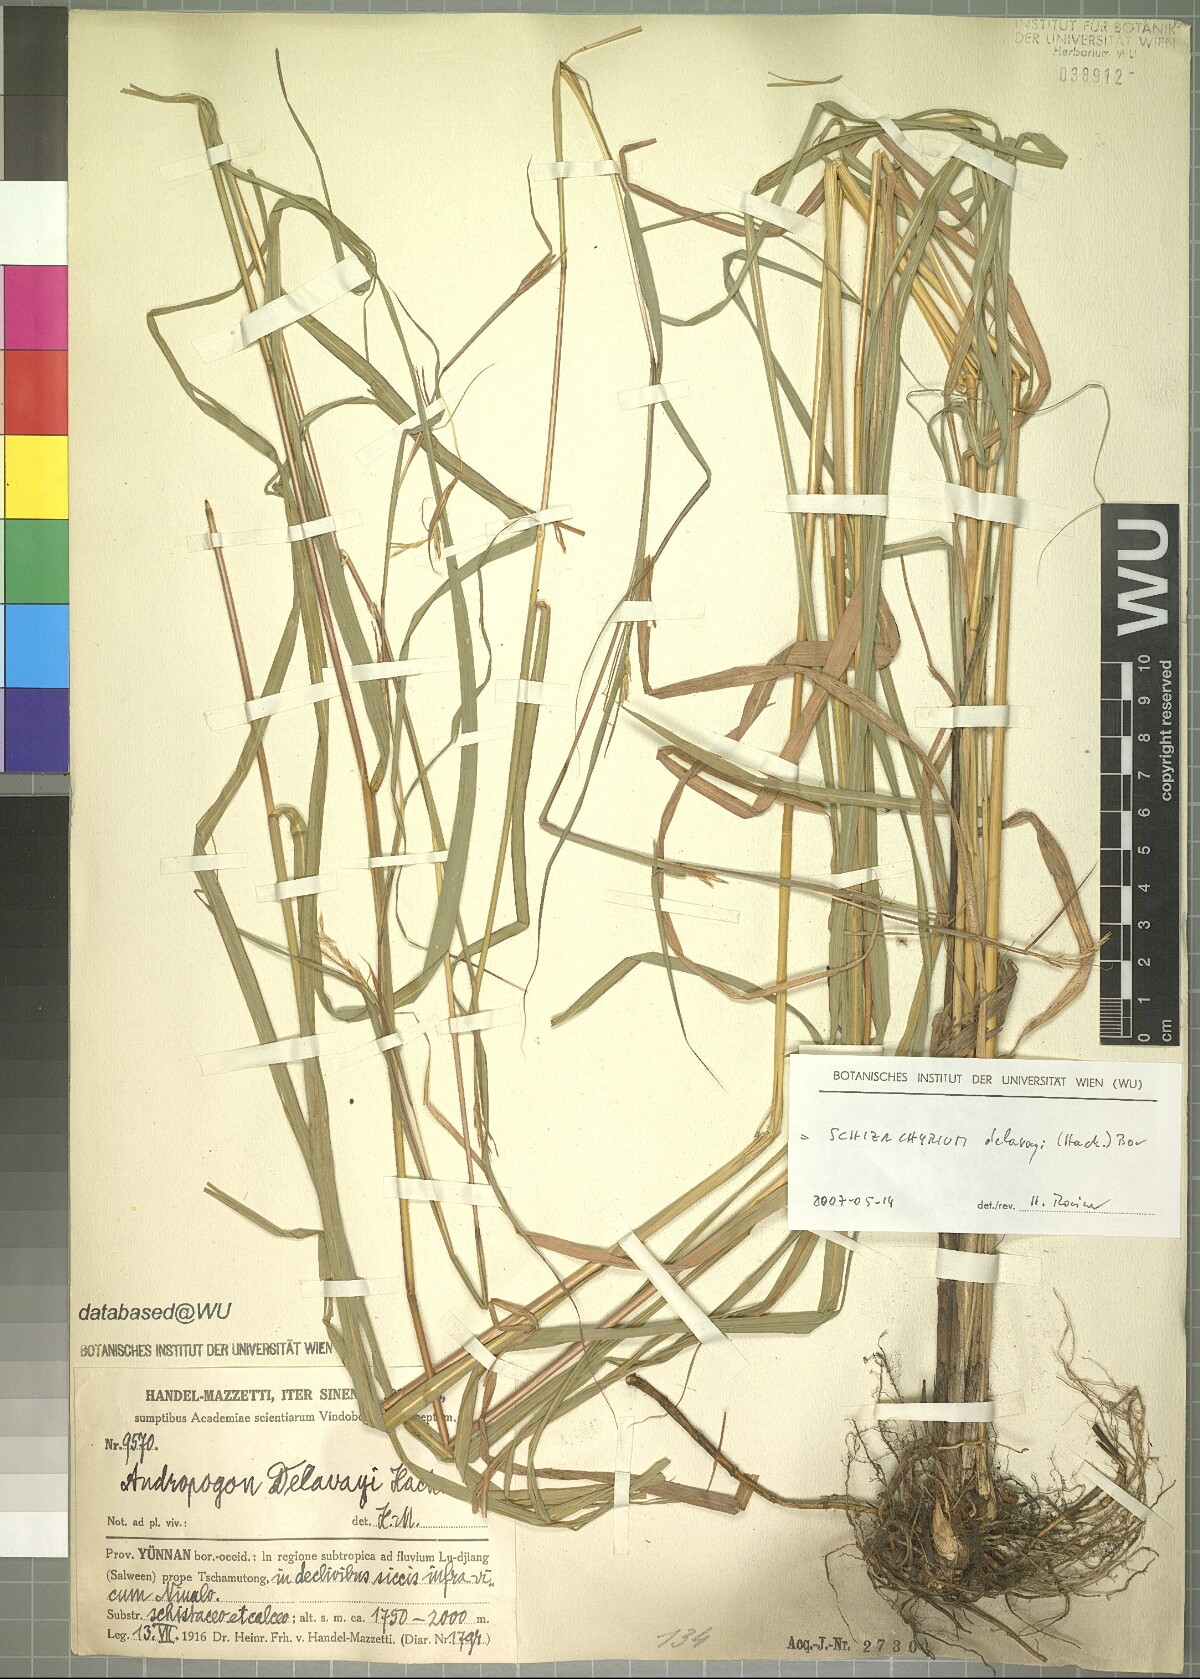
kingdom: Plantae
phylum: Tracheophyta
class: Liliopsida
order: Poales
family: Poaceae
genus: Schizachyrium
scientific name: Schizachyrium delavayi
